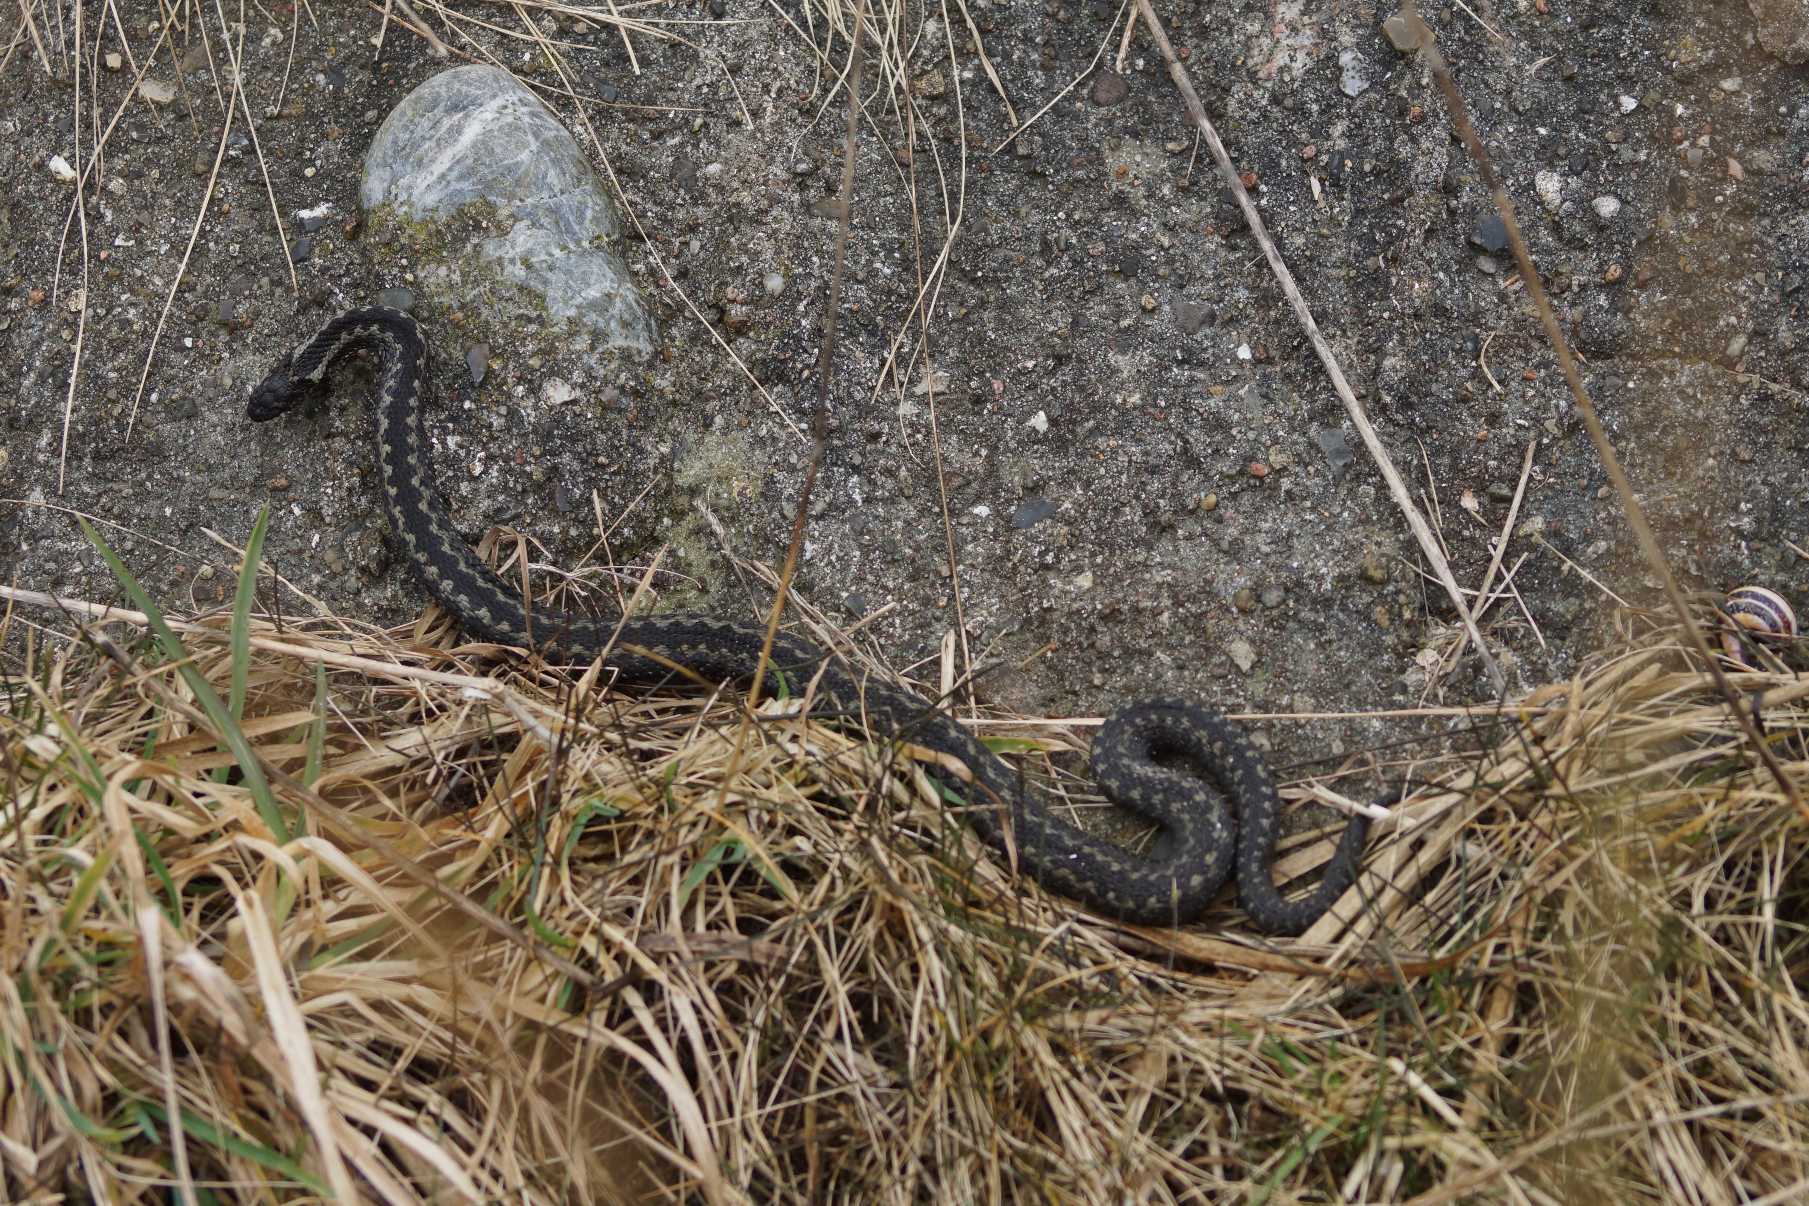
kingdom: Animalia
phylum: Chordata
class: Squamata
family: Viperidae
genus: Vipera
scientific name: Vipera berus
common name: Hugorm
